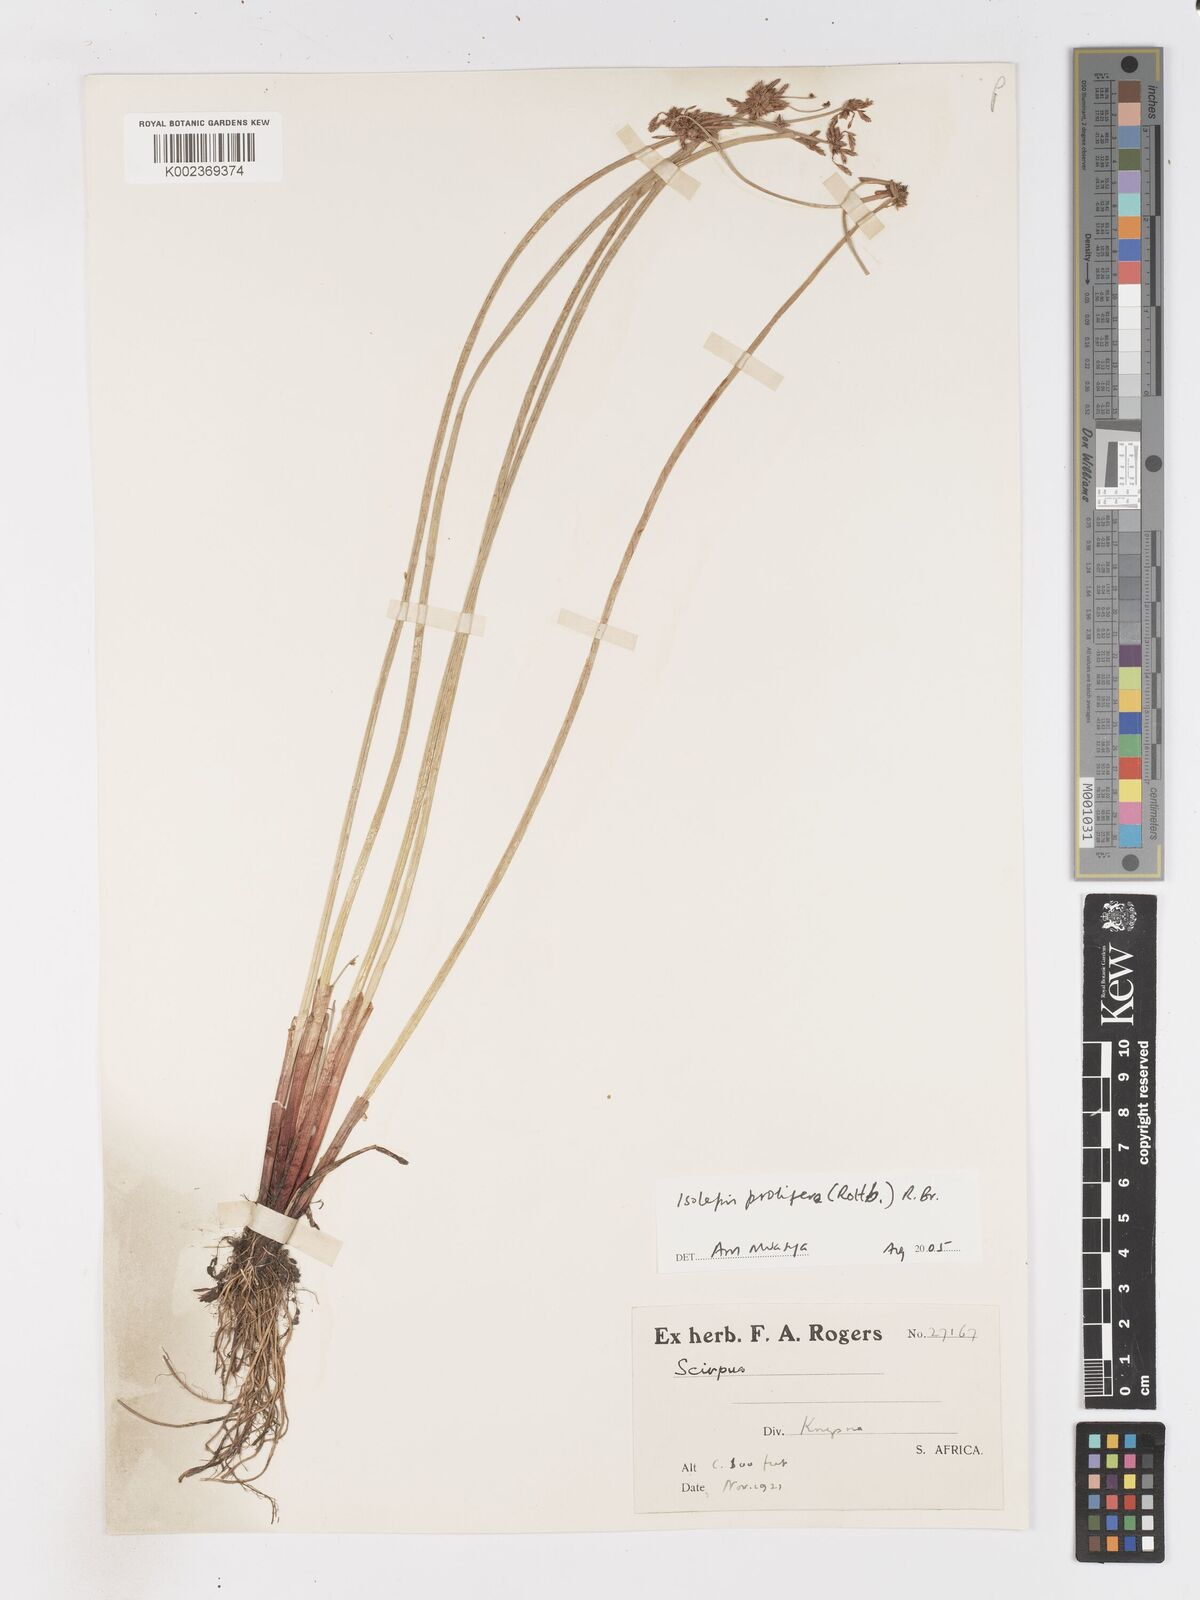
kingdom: Plantae
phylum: Tracheophyta
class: Liliopsida
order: Poales
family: Cyperaceae
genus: Isolepis
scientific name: Isolepis prolifera
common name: Proliferating bulrush
